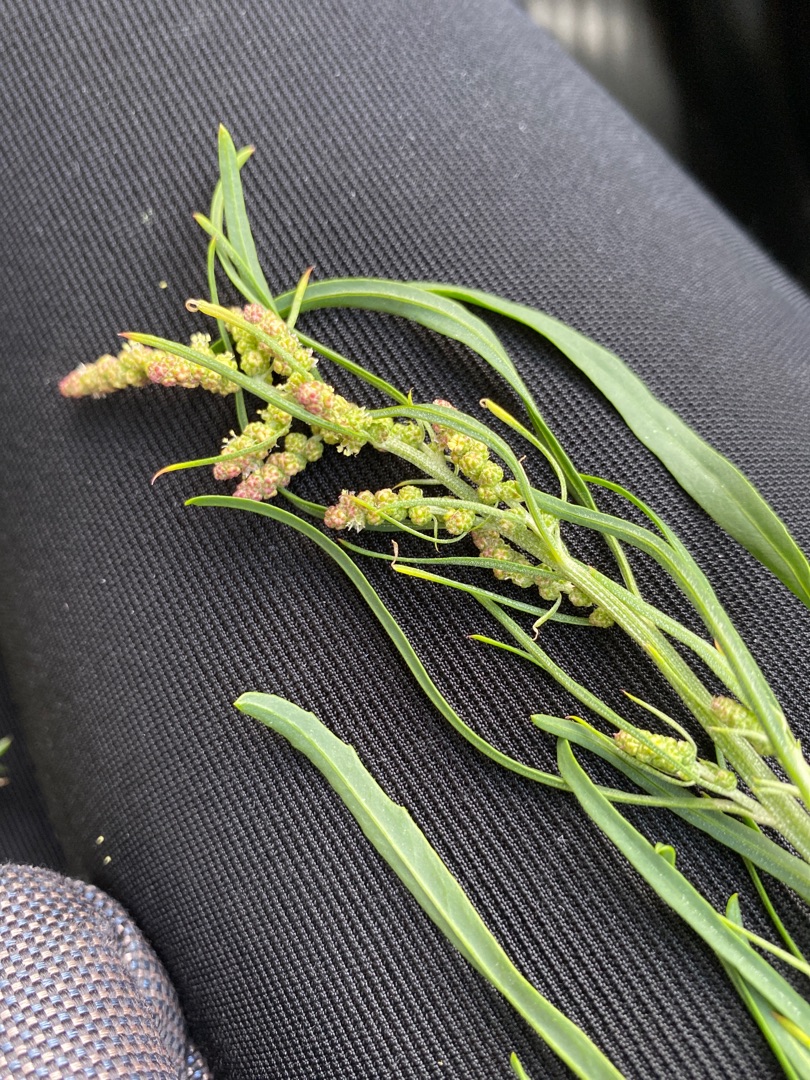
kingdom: Plantae
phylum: Tracheophyta
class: Magnoliopsida
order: Caryophyllales
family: Amaranthaceae
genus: Atriplex
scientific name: Atriplex littoralis
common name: Strand-mælde
